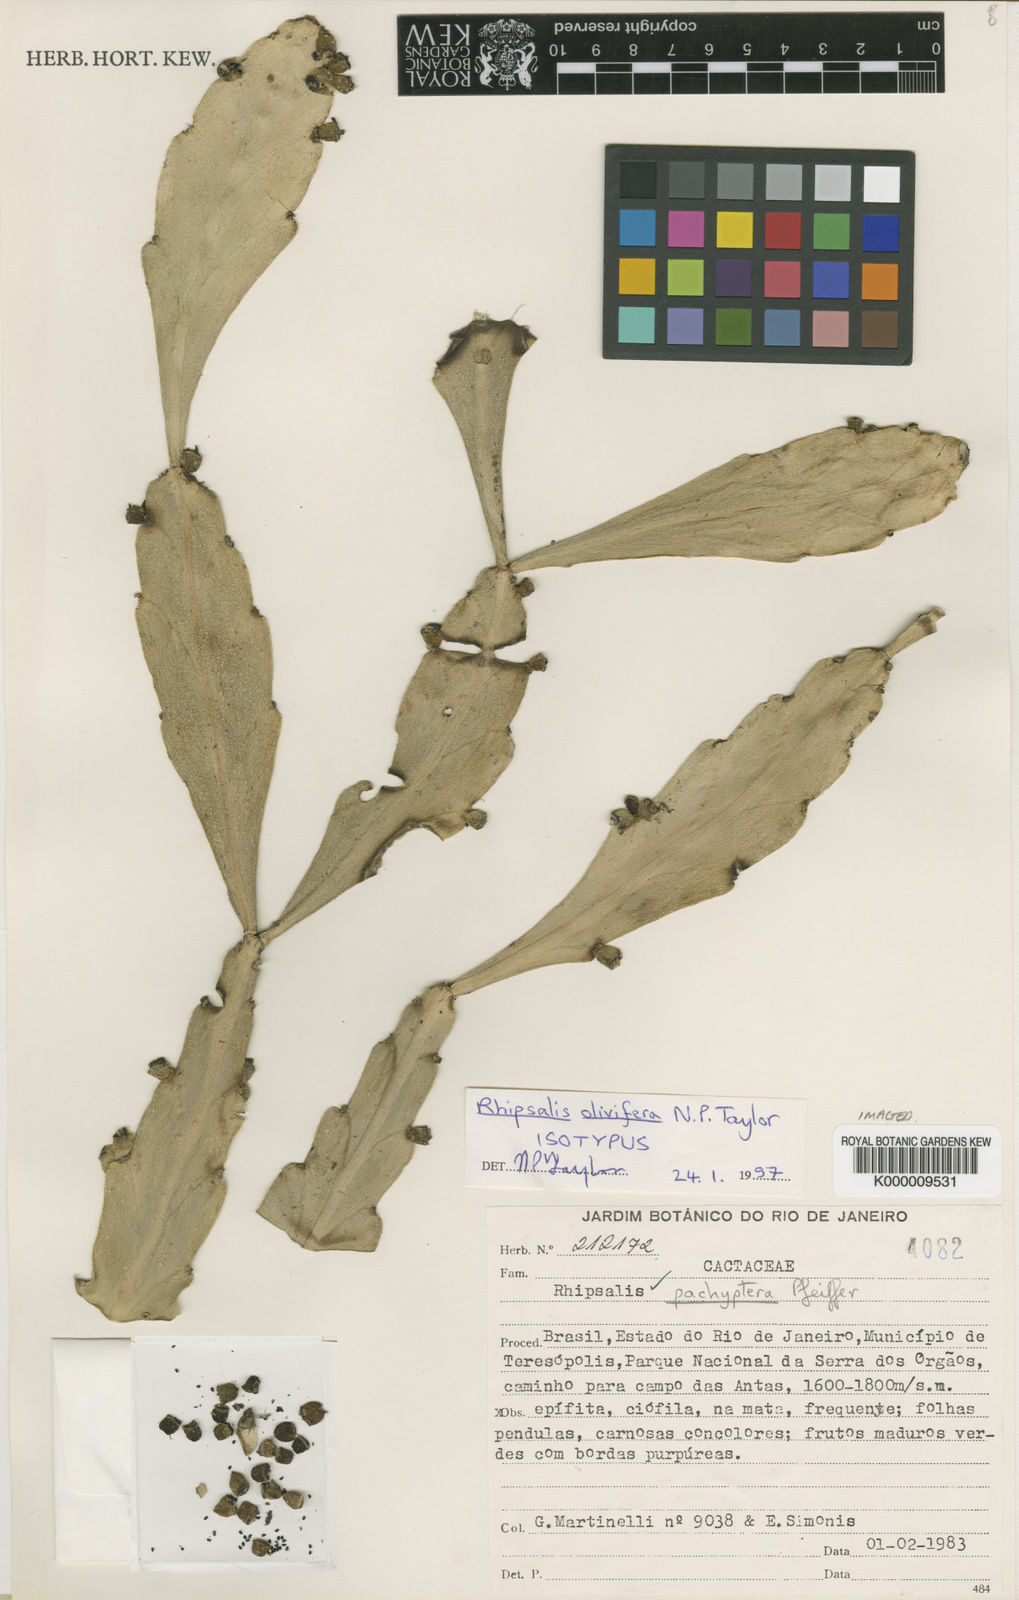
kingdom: Plantae
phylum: Tracheophyta
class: Magnoliopsida
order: Caryophyllales
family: Cactaceae
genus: Rhipsalis
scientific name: Rhipsalis olivifera
